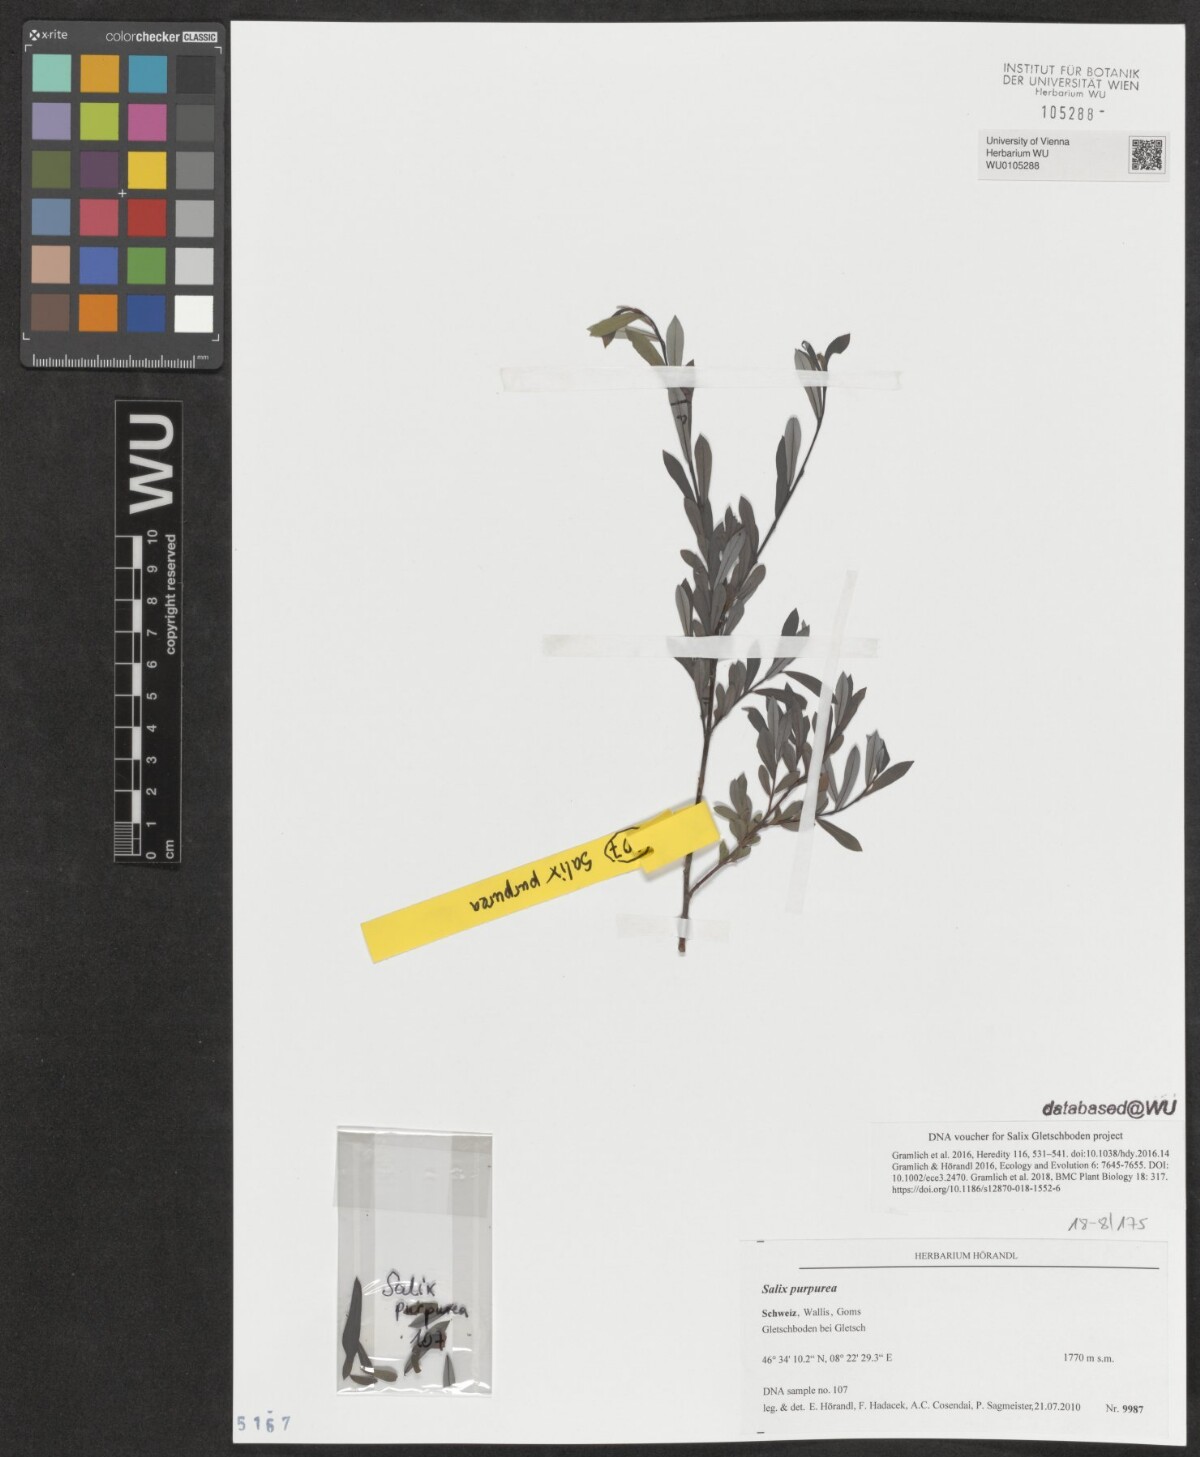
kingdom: Plantae
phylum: Tracheophyta
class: Magnoliopsida
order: Malpighiales
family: Salicaceae
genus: Salix
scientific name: Salix purpurea
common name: Purple willow
